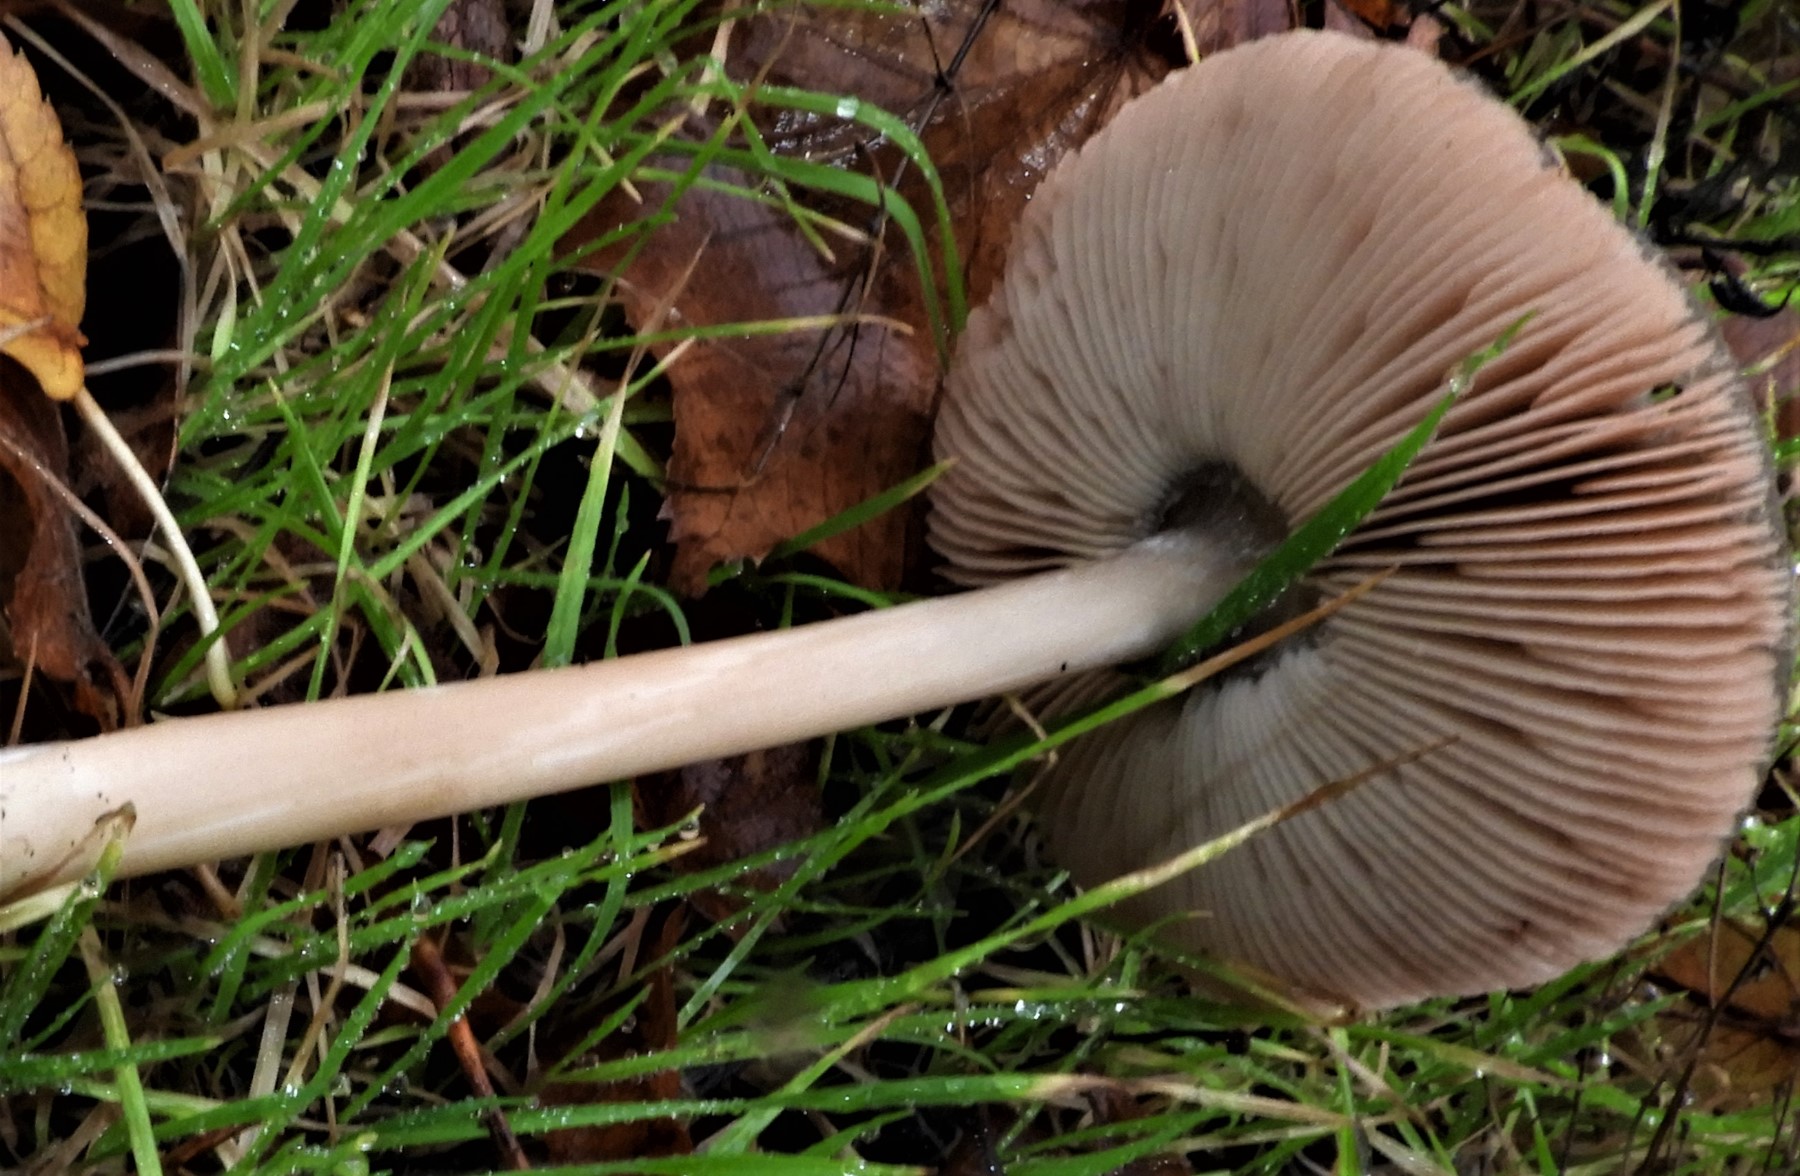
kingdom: Fungi
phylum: Basidiomycota
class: Agaricomycetes
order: Agaricales
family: Pluteaceae
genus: Volvopluteus
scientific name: Volvopluteus gloiocephalus
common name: høj posesvamp
